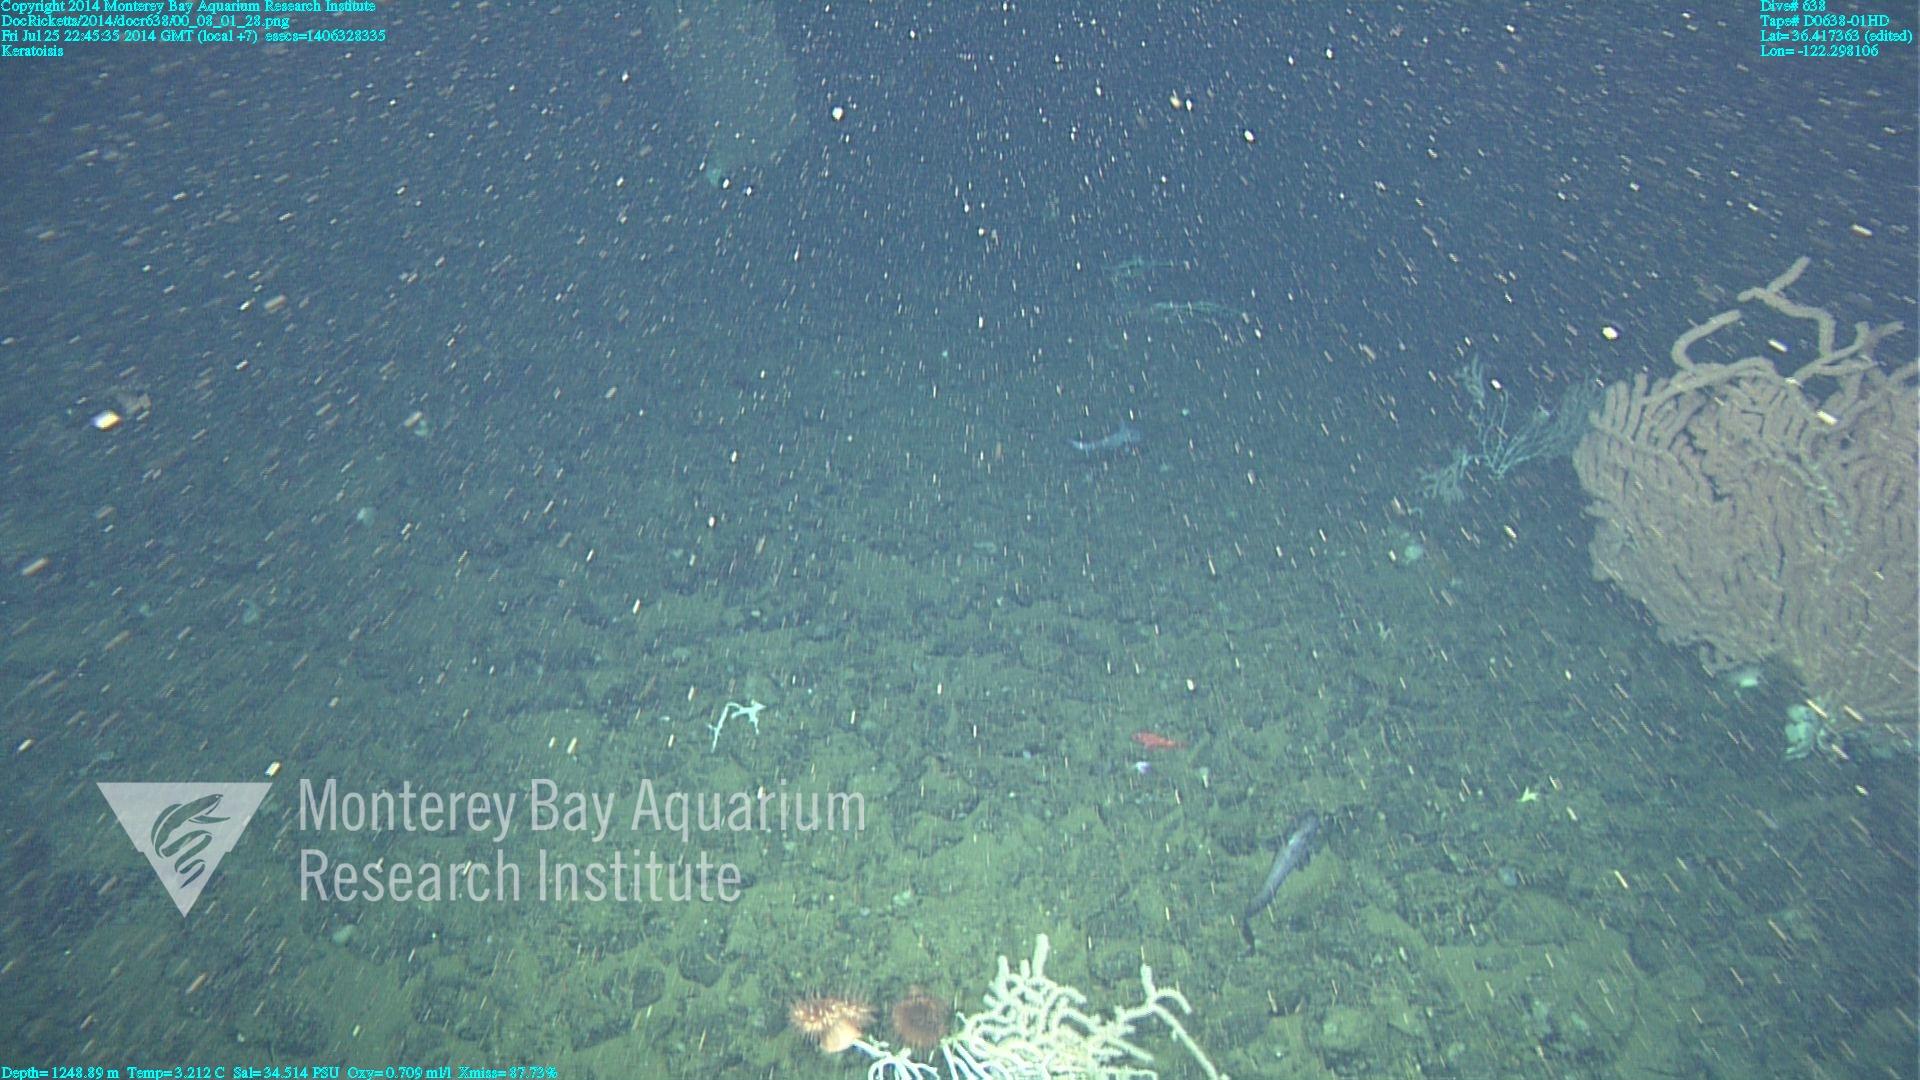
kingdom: Animalia
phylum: Cnidaria
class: Anthozoa
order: Scleralcyonacea
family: Keratoisididae
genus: Keratoisis
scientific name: Keratoisis
